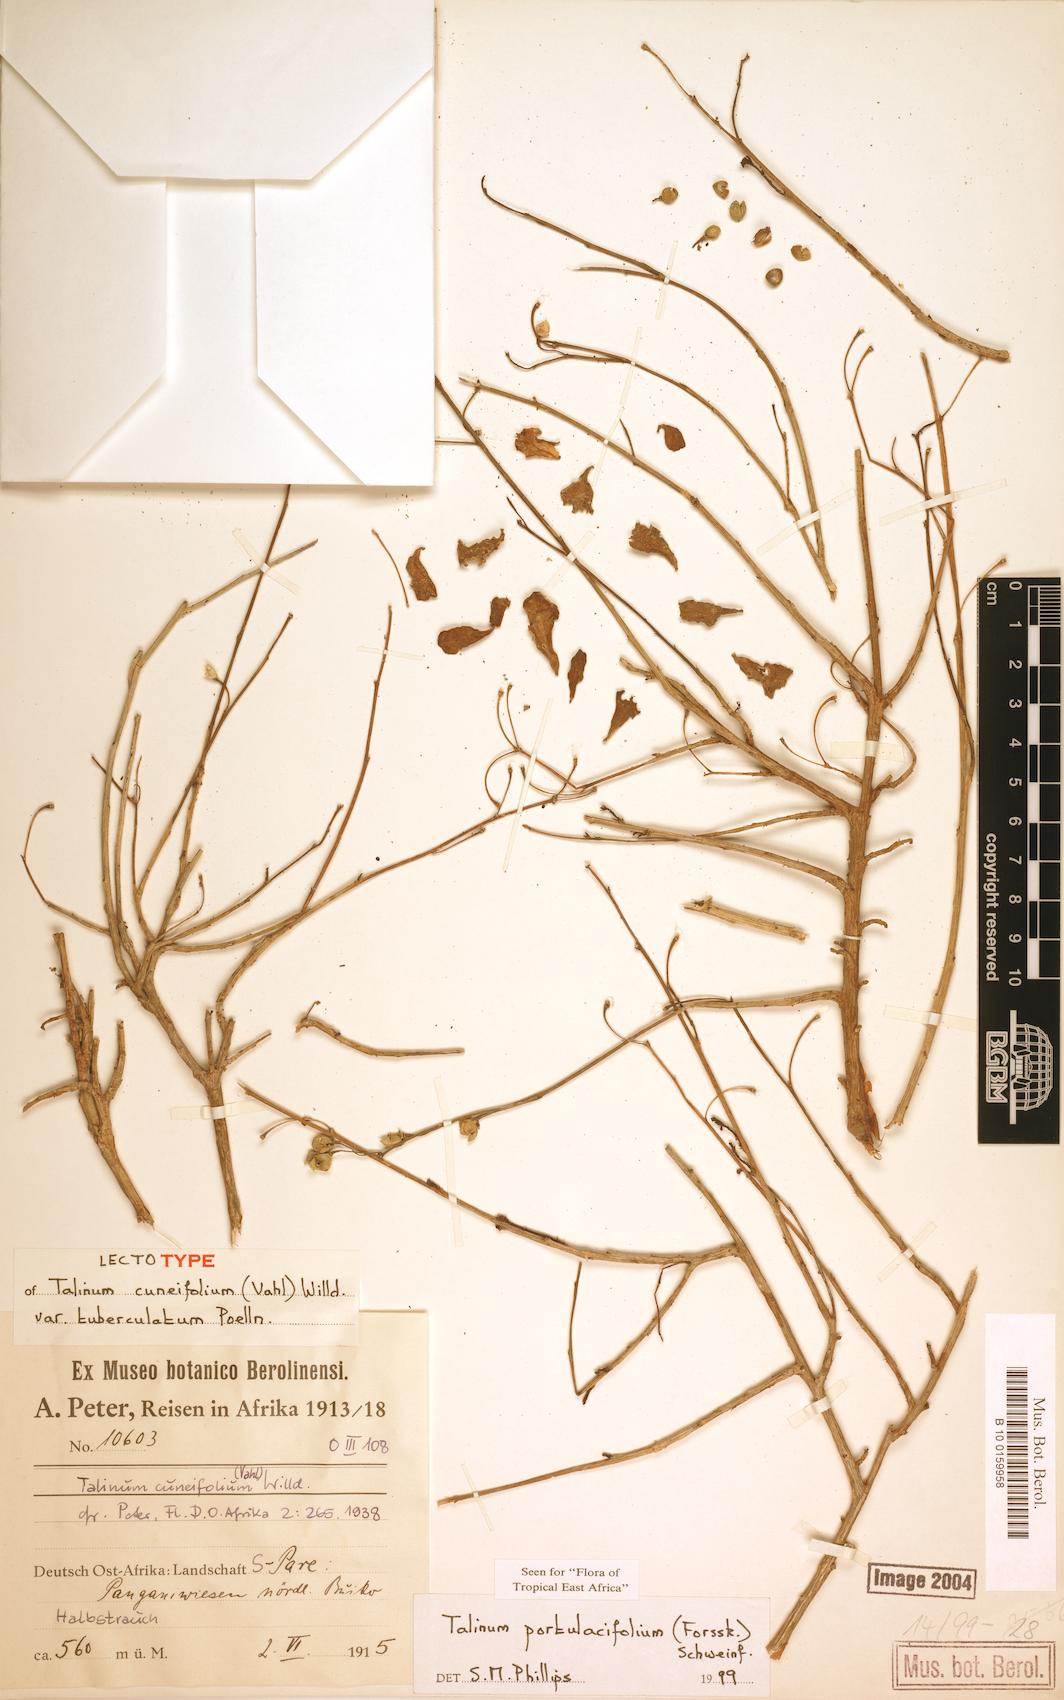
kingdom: Plantae
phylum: Tracheophyta
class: Magnoliopsida
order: Caryophyllales
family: Talinaceae
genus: Talinum
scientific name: Talinum portulacifolium
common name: Flameflower
